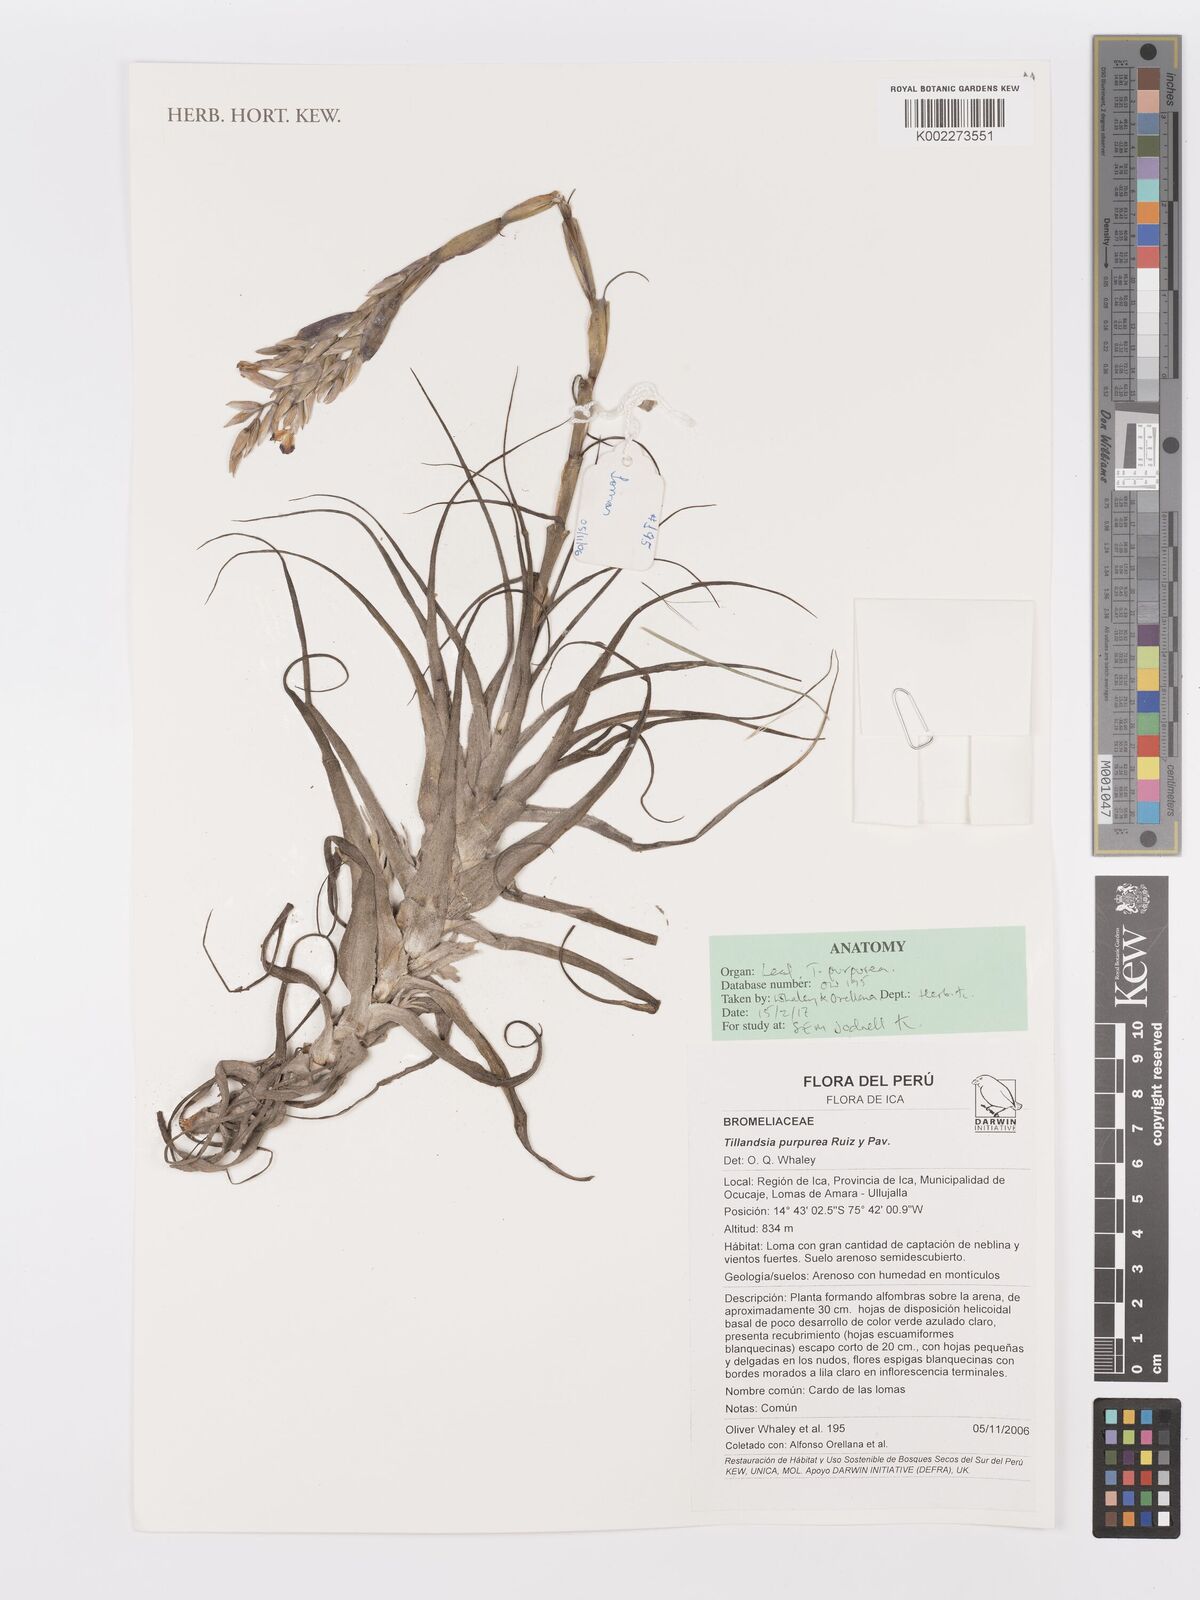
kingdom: Plantae
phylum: Tracheophyta
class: Liliopsida
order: Poales
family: Bromeliaceae
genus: Tillandsia
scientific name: Tillandsia purpurea
